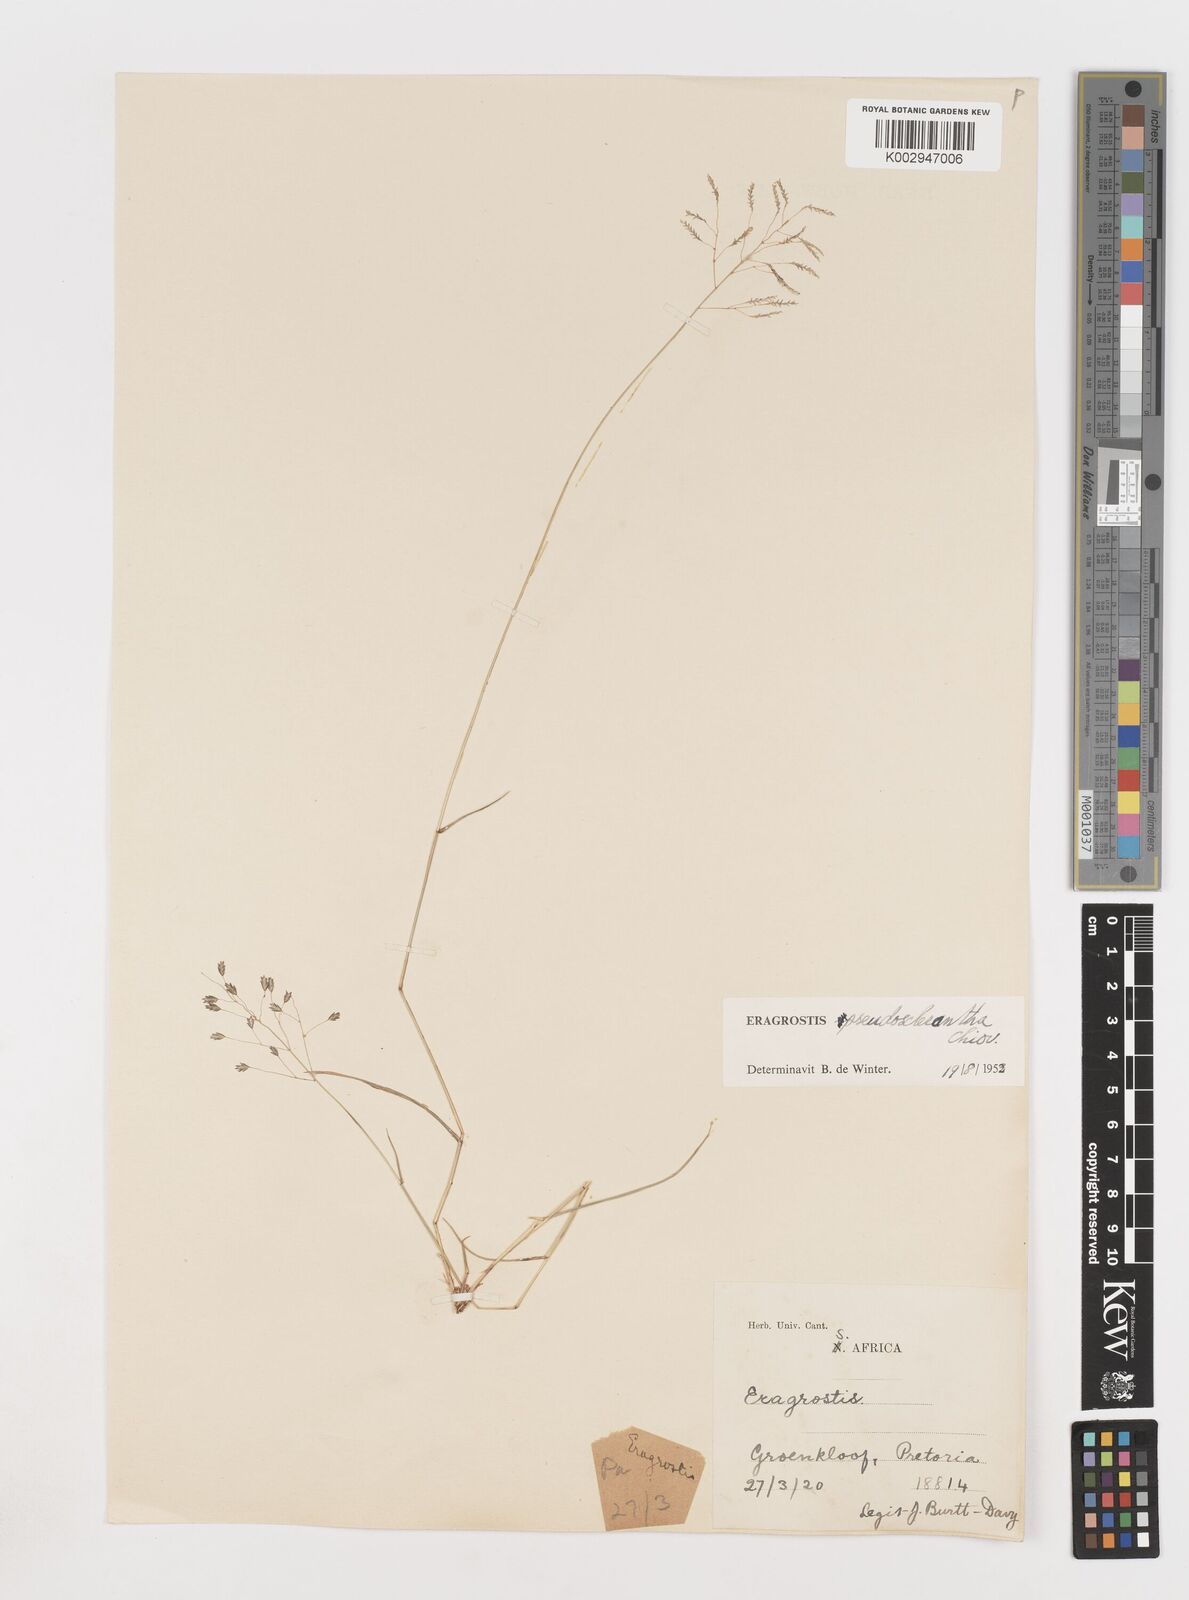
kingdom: Plantae
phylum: Tracheophyta
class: Liliopsida
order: Poales
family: Poaceae
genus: Eragrostis
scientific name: Eragrostis patentipilosa
